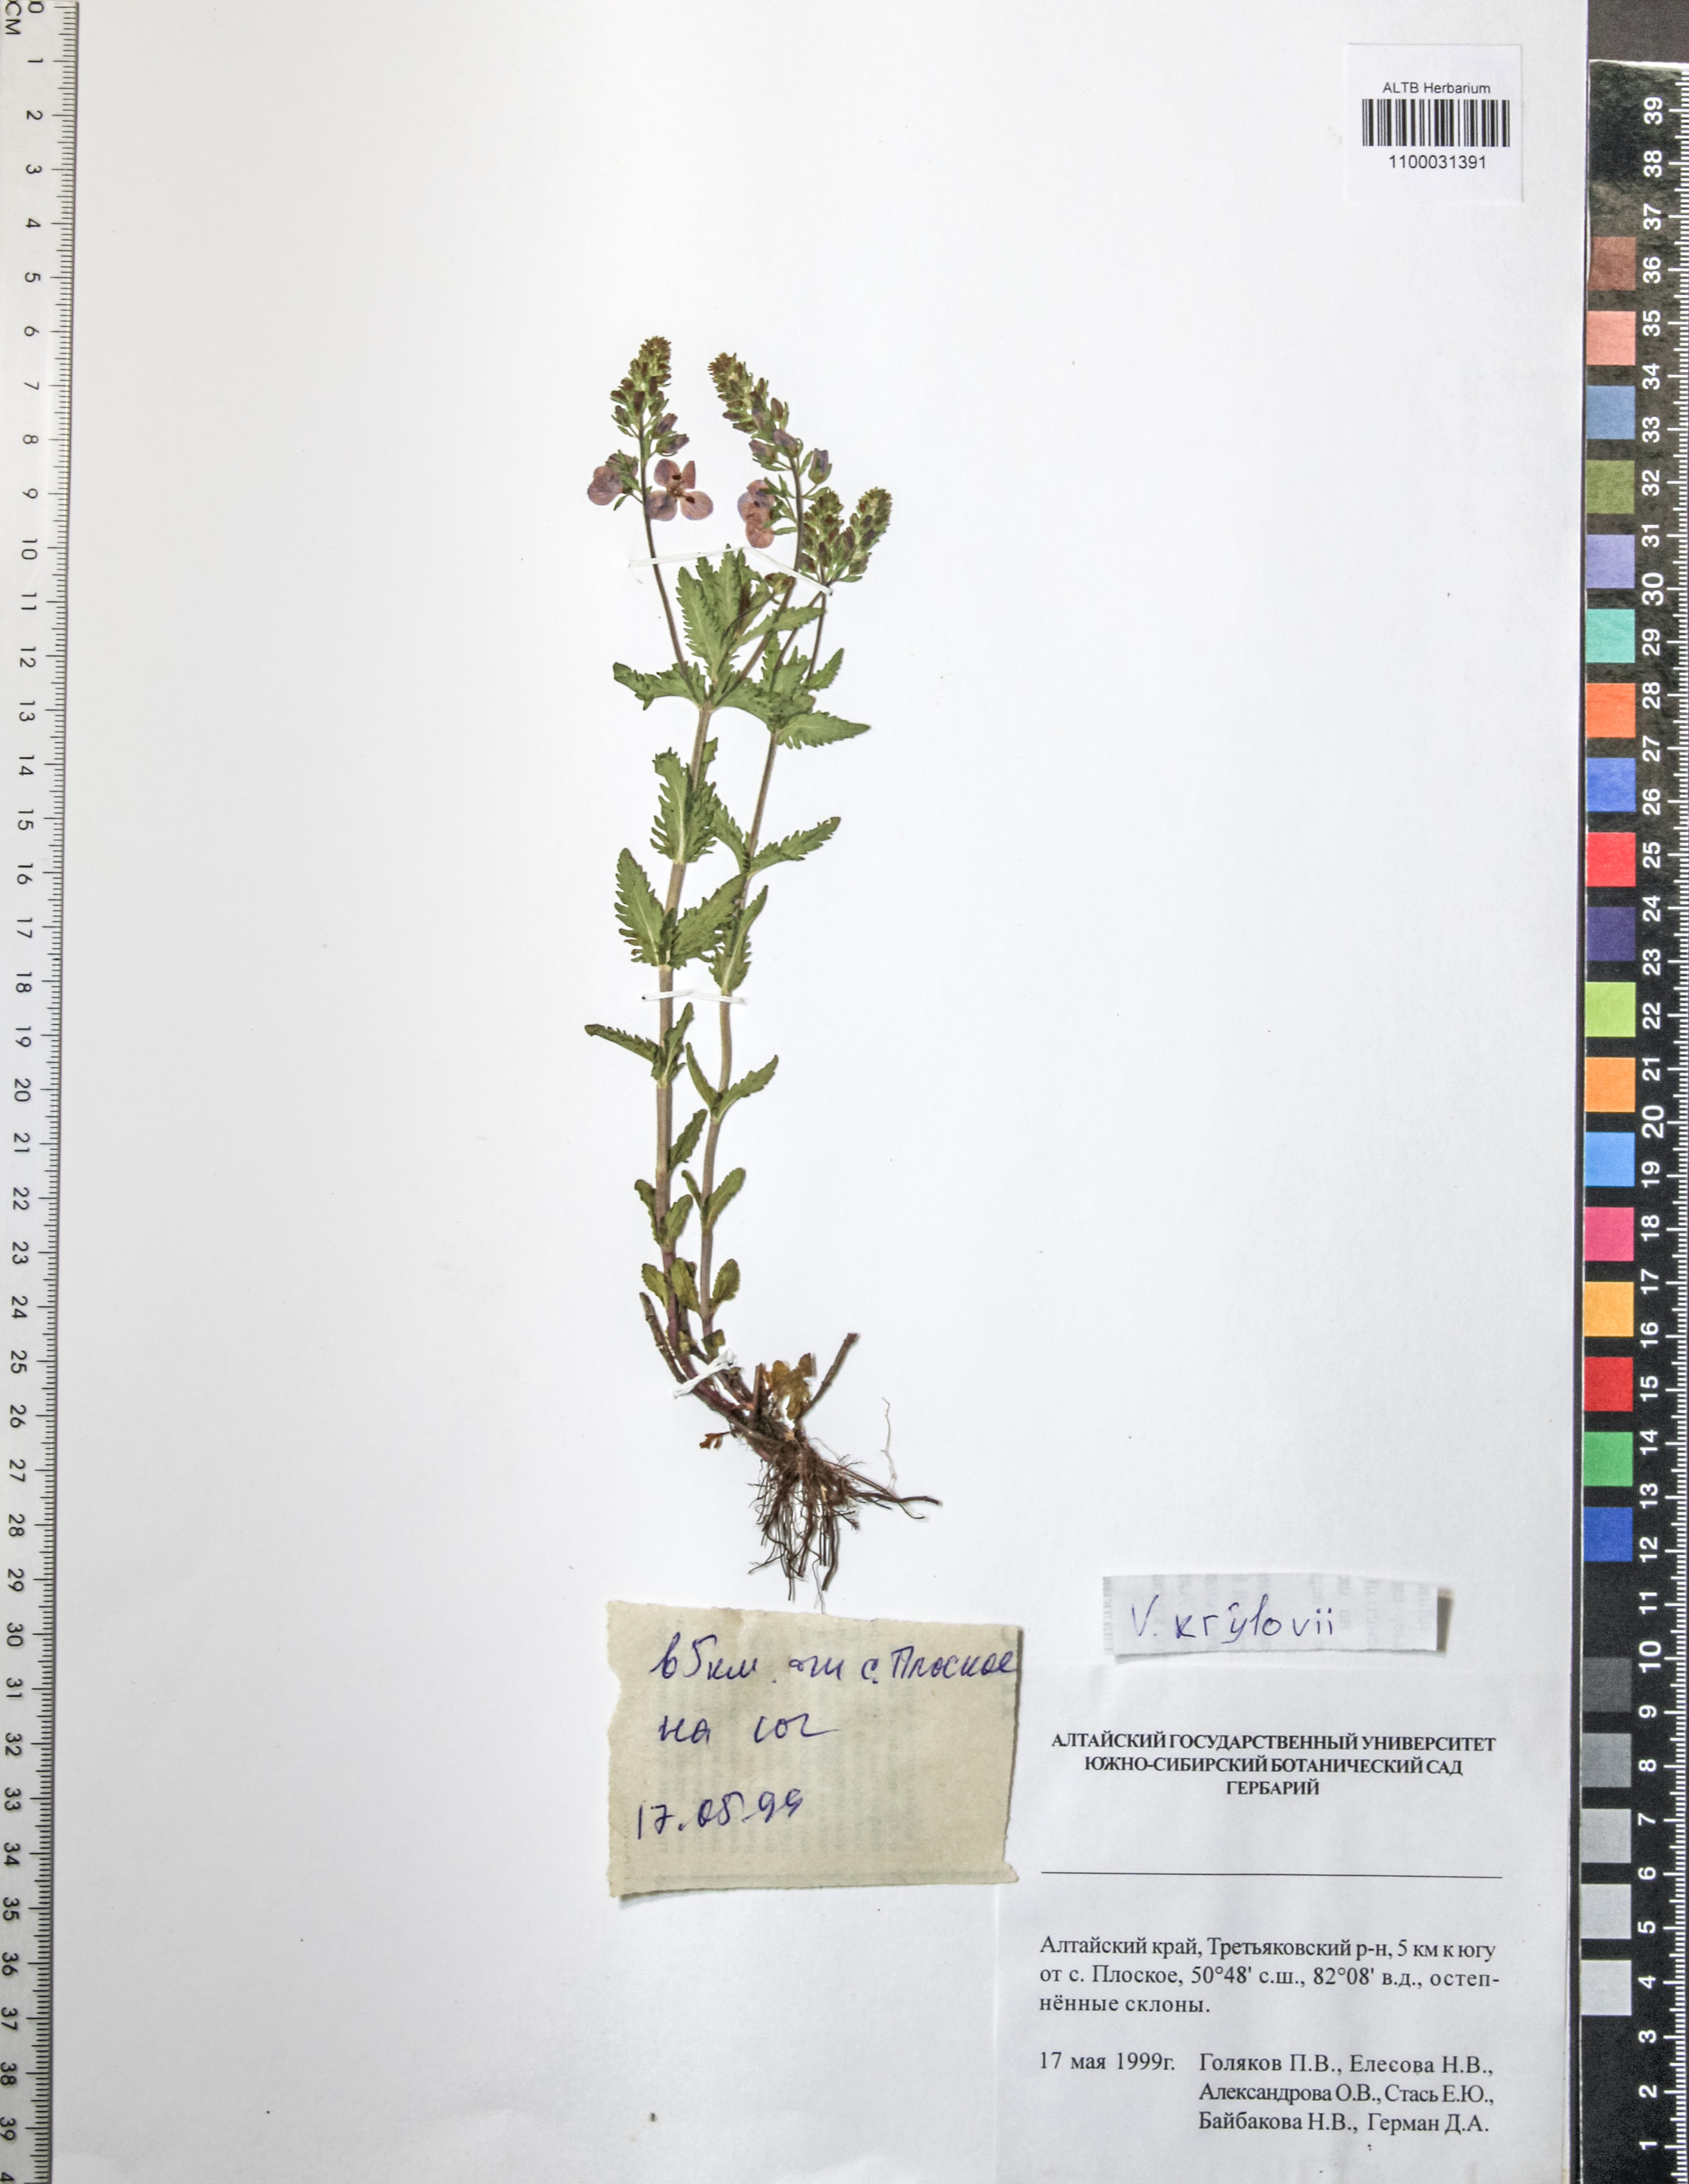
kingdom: Plantae
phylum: Tracheophyta
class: Magnoliopsida
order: Lamiales
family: Plantaginaceae
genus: Veronica
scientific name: Veronica krylovii
